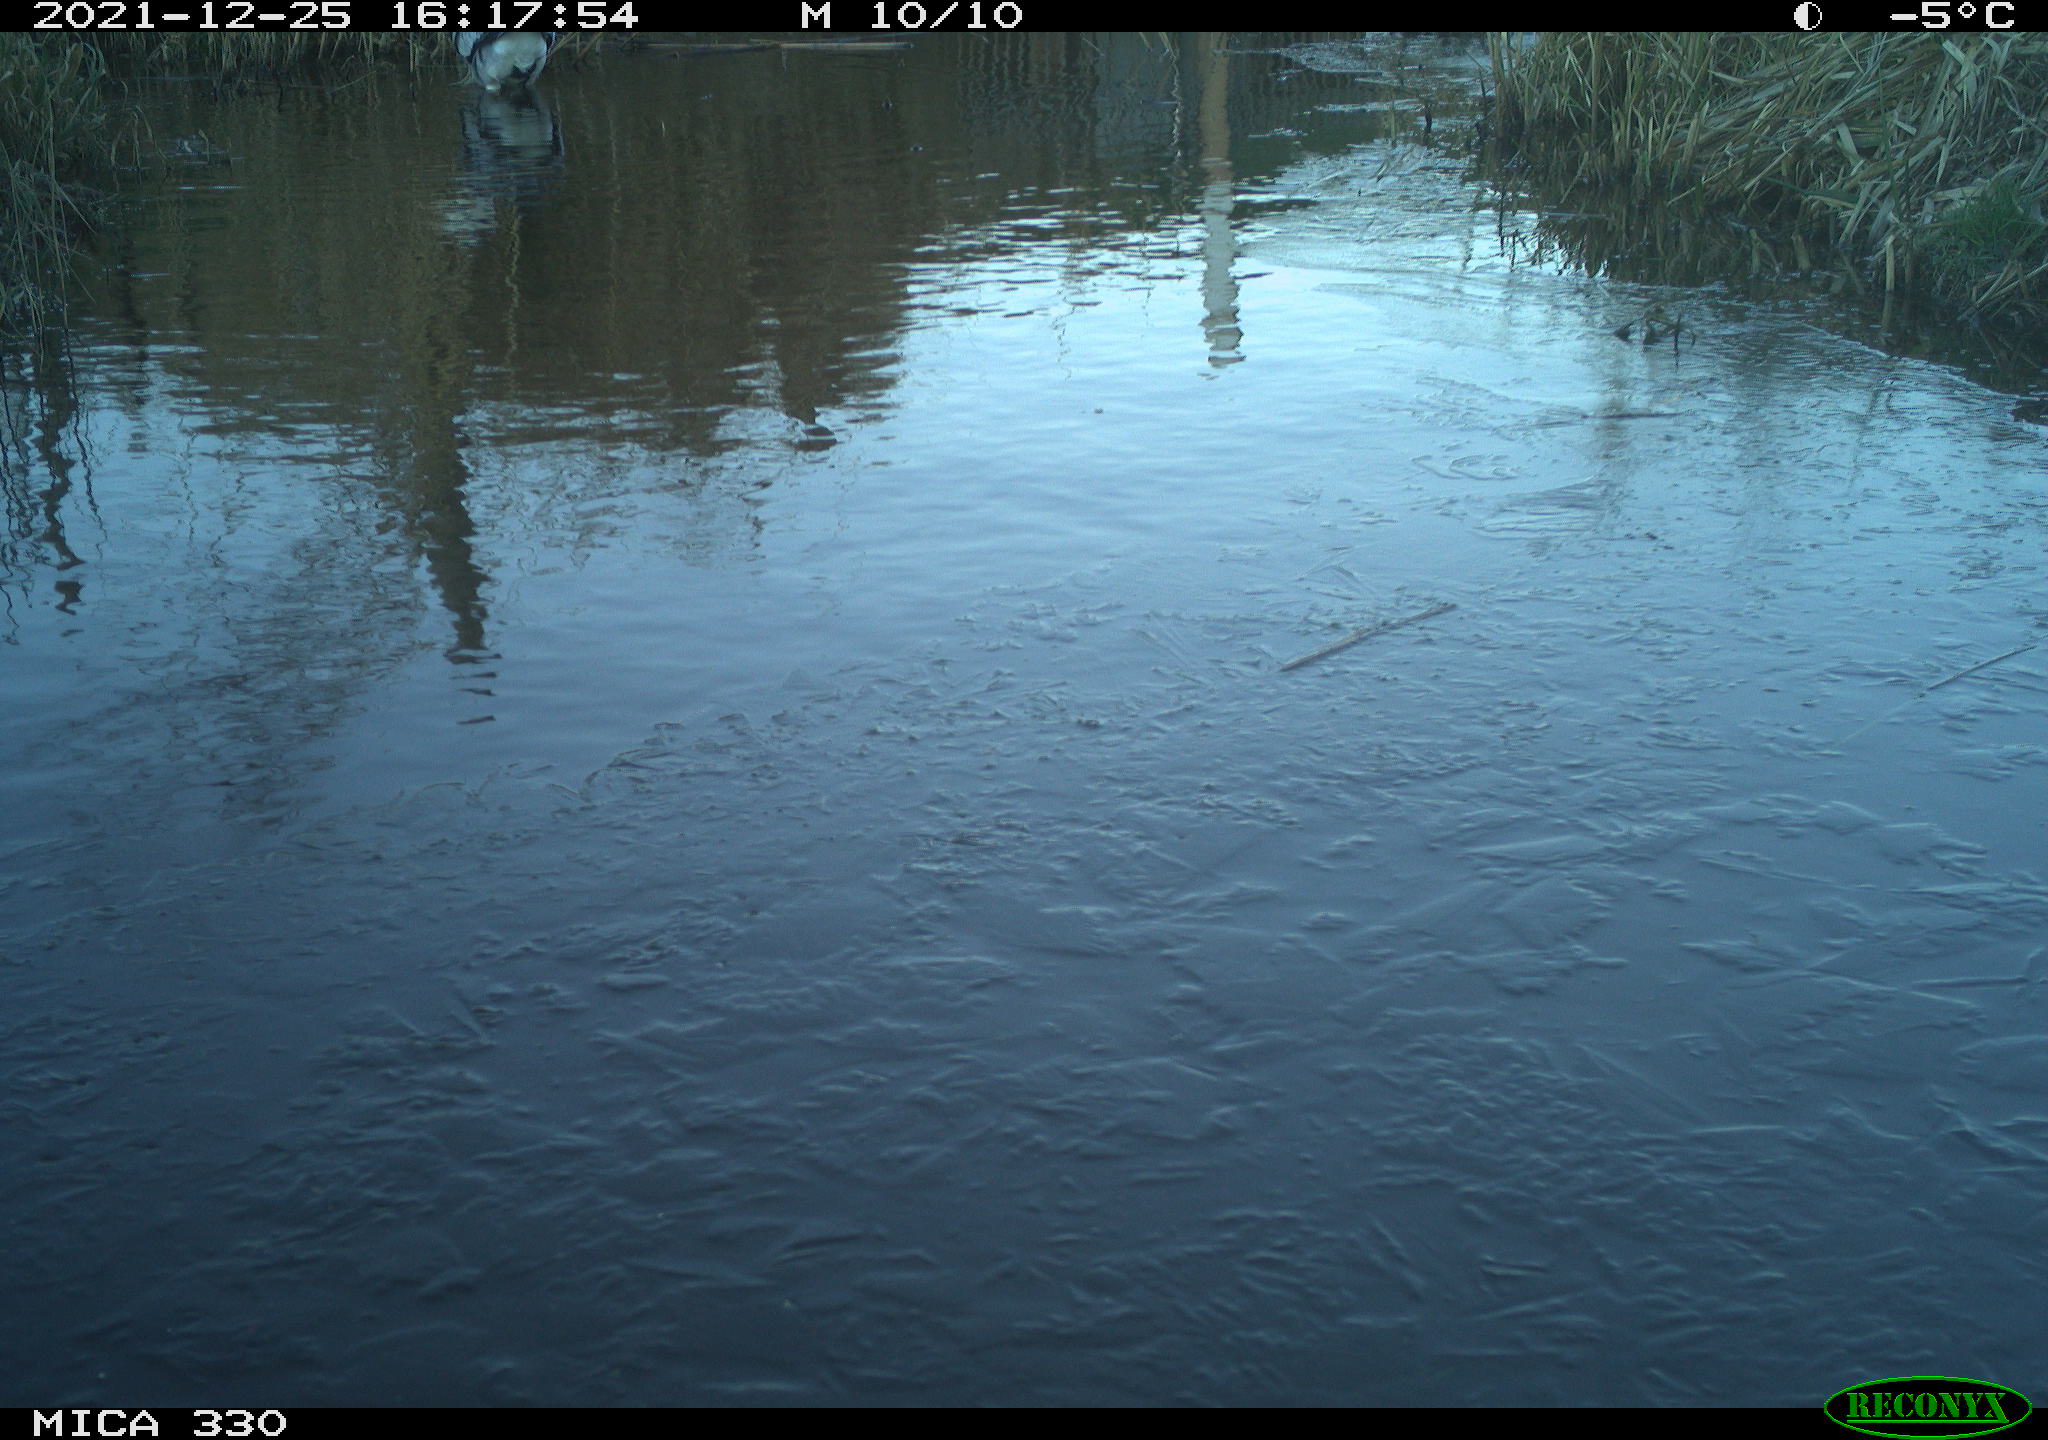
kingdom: Animalia
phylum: Chordata
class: Aves
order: Pelecaniformes
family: Ardeidae
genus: Ardea
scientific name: Ardea cinerea
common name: Grey heron
